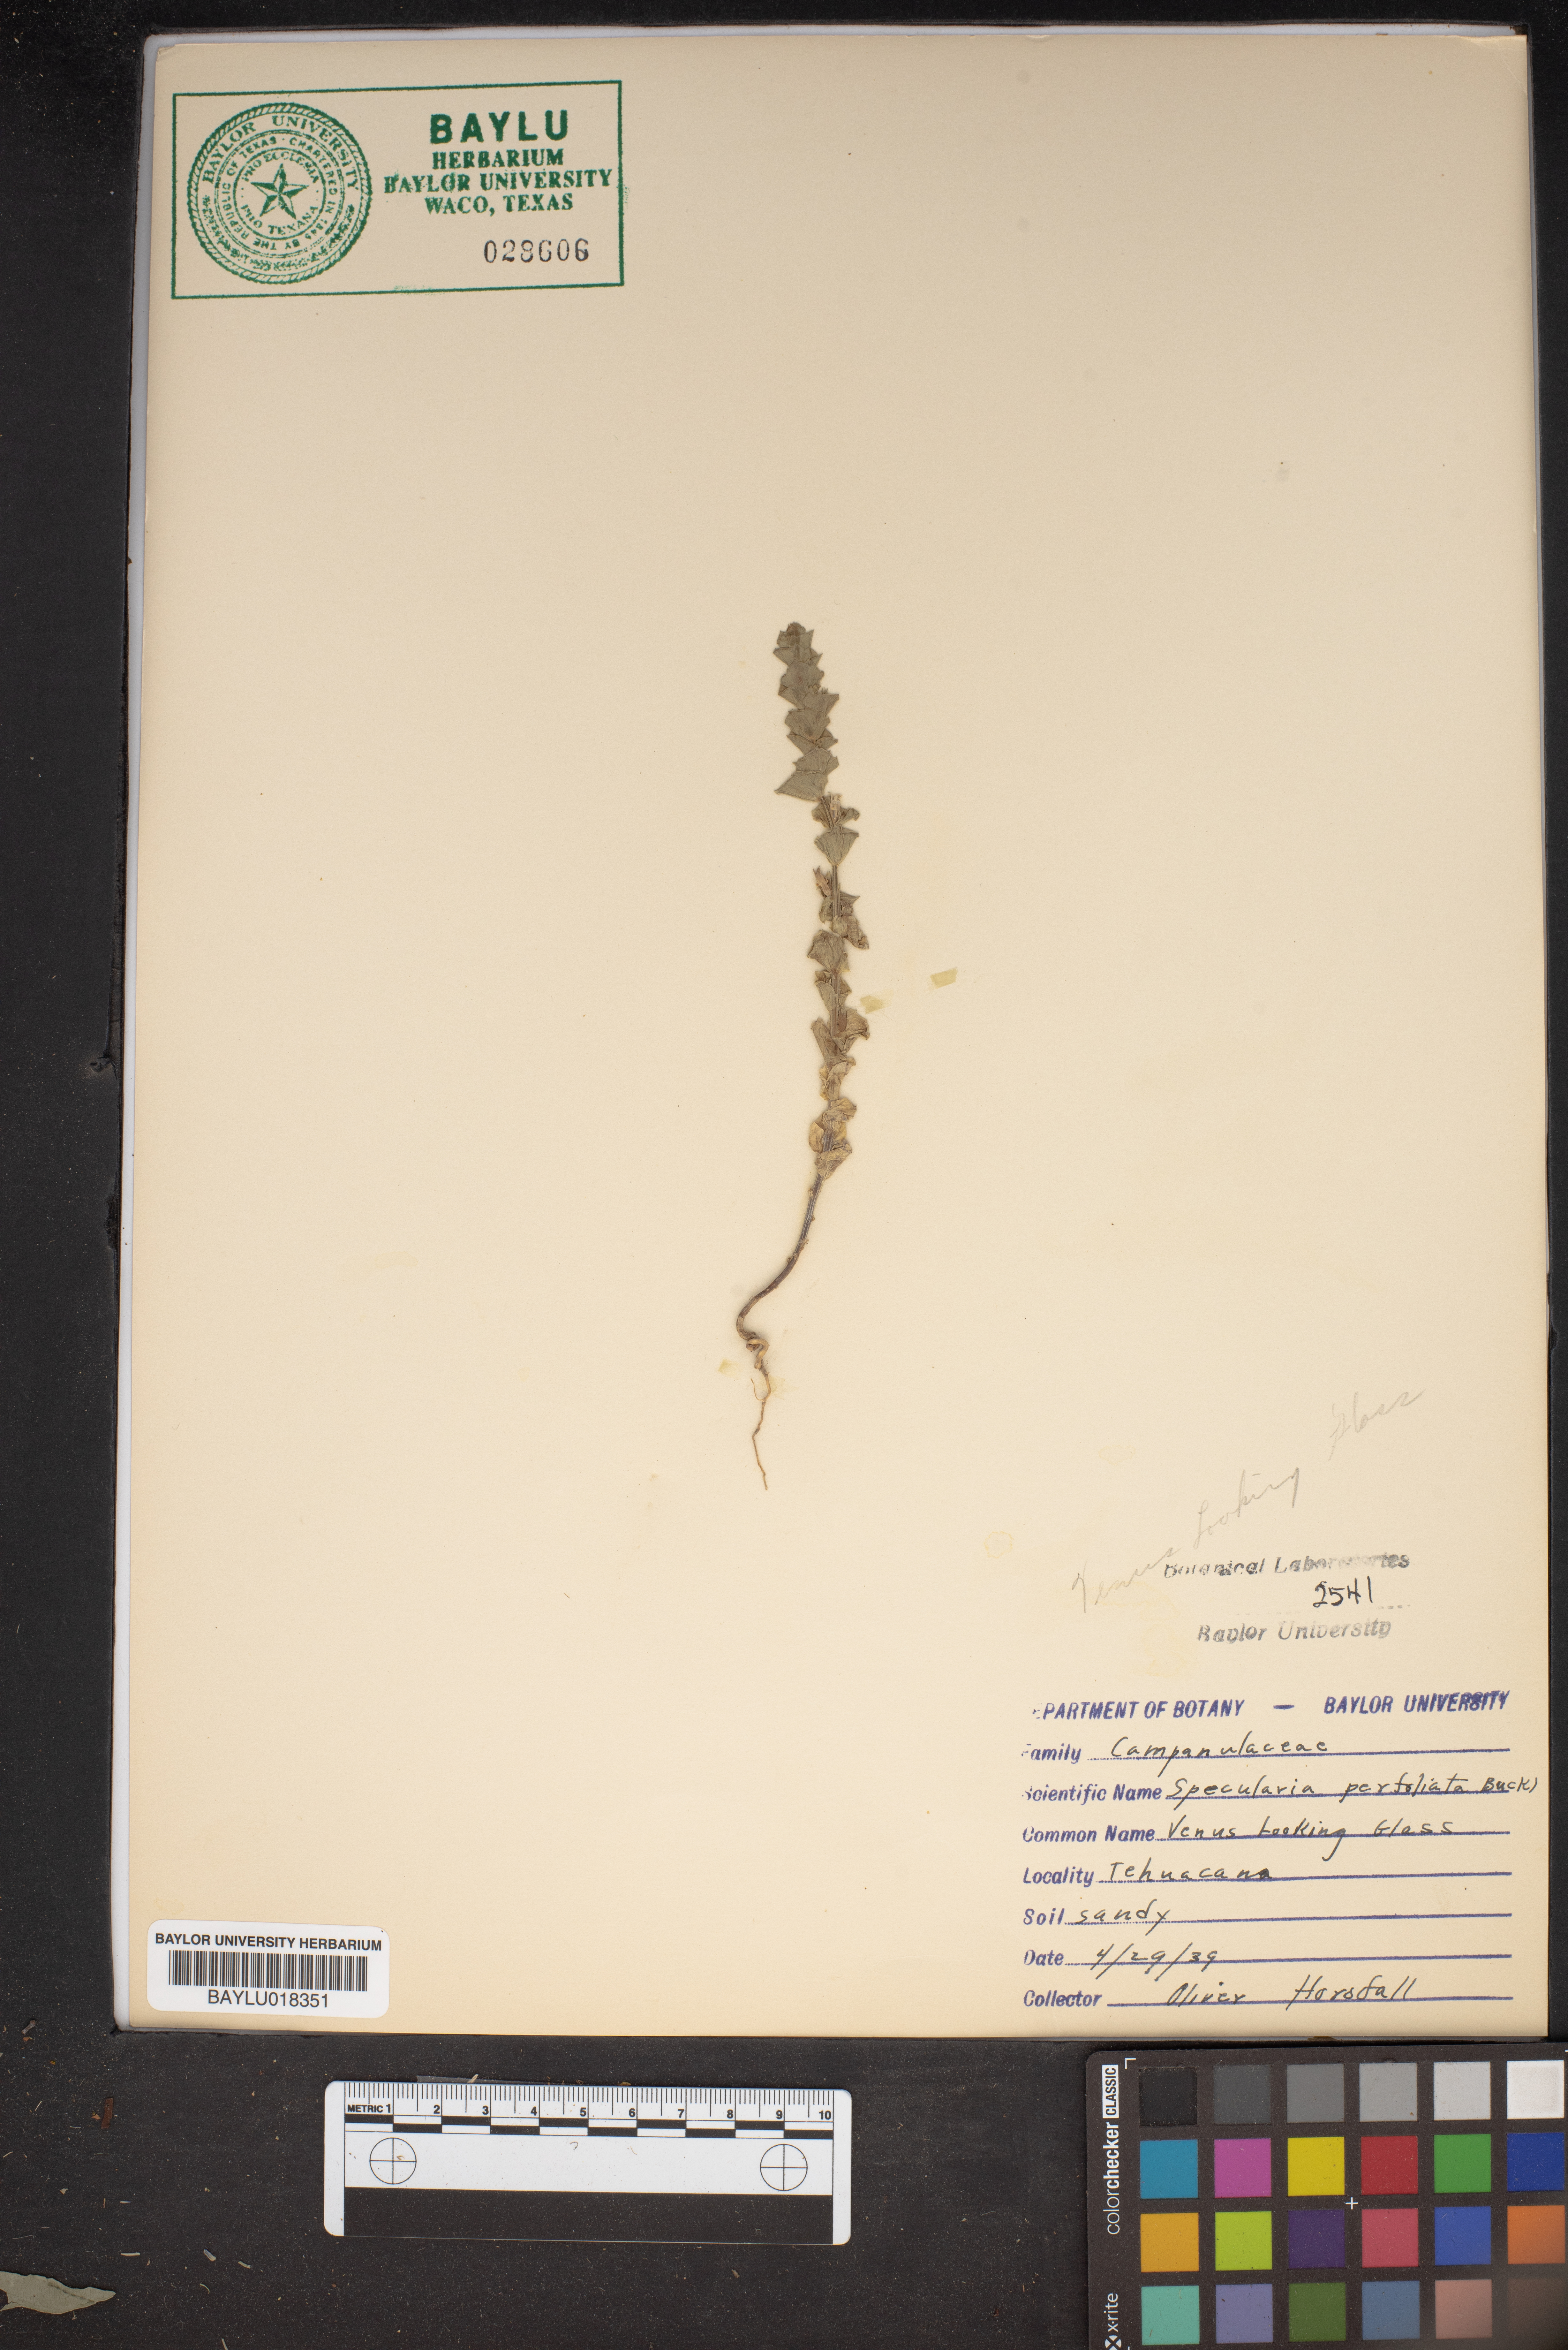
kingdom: Plantae
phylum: Tracheophyta
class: Magnoliopsida
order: Asterales
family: Campanulaceae
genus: Triodanis
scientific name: Triodanis perfoliata
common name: Clasping venus' looking-glass
